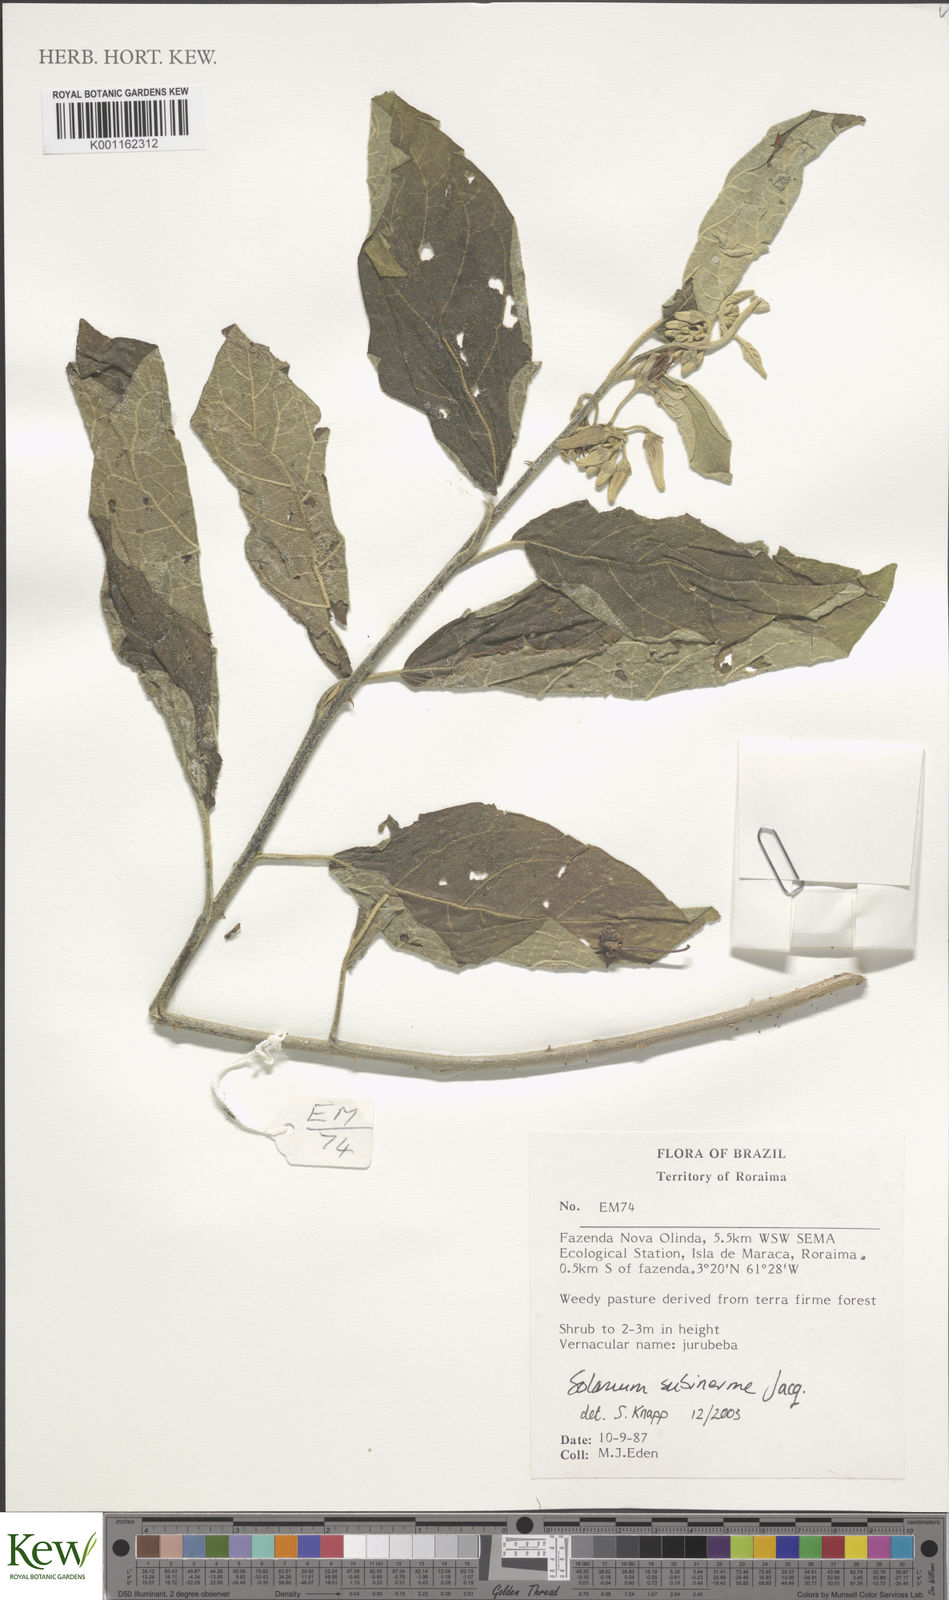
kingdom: Plantae
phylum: Tracheophyta
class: Magnoliopsida
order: Solanales
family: Solanaceae
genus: Solanum
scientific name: Solanum subinerme
